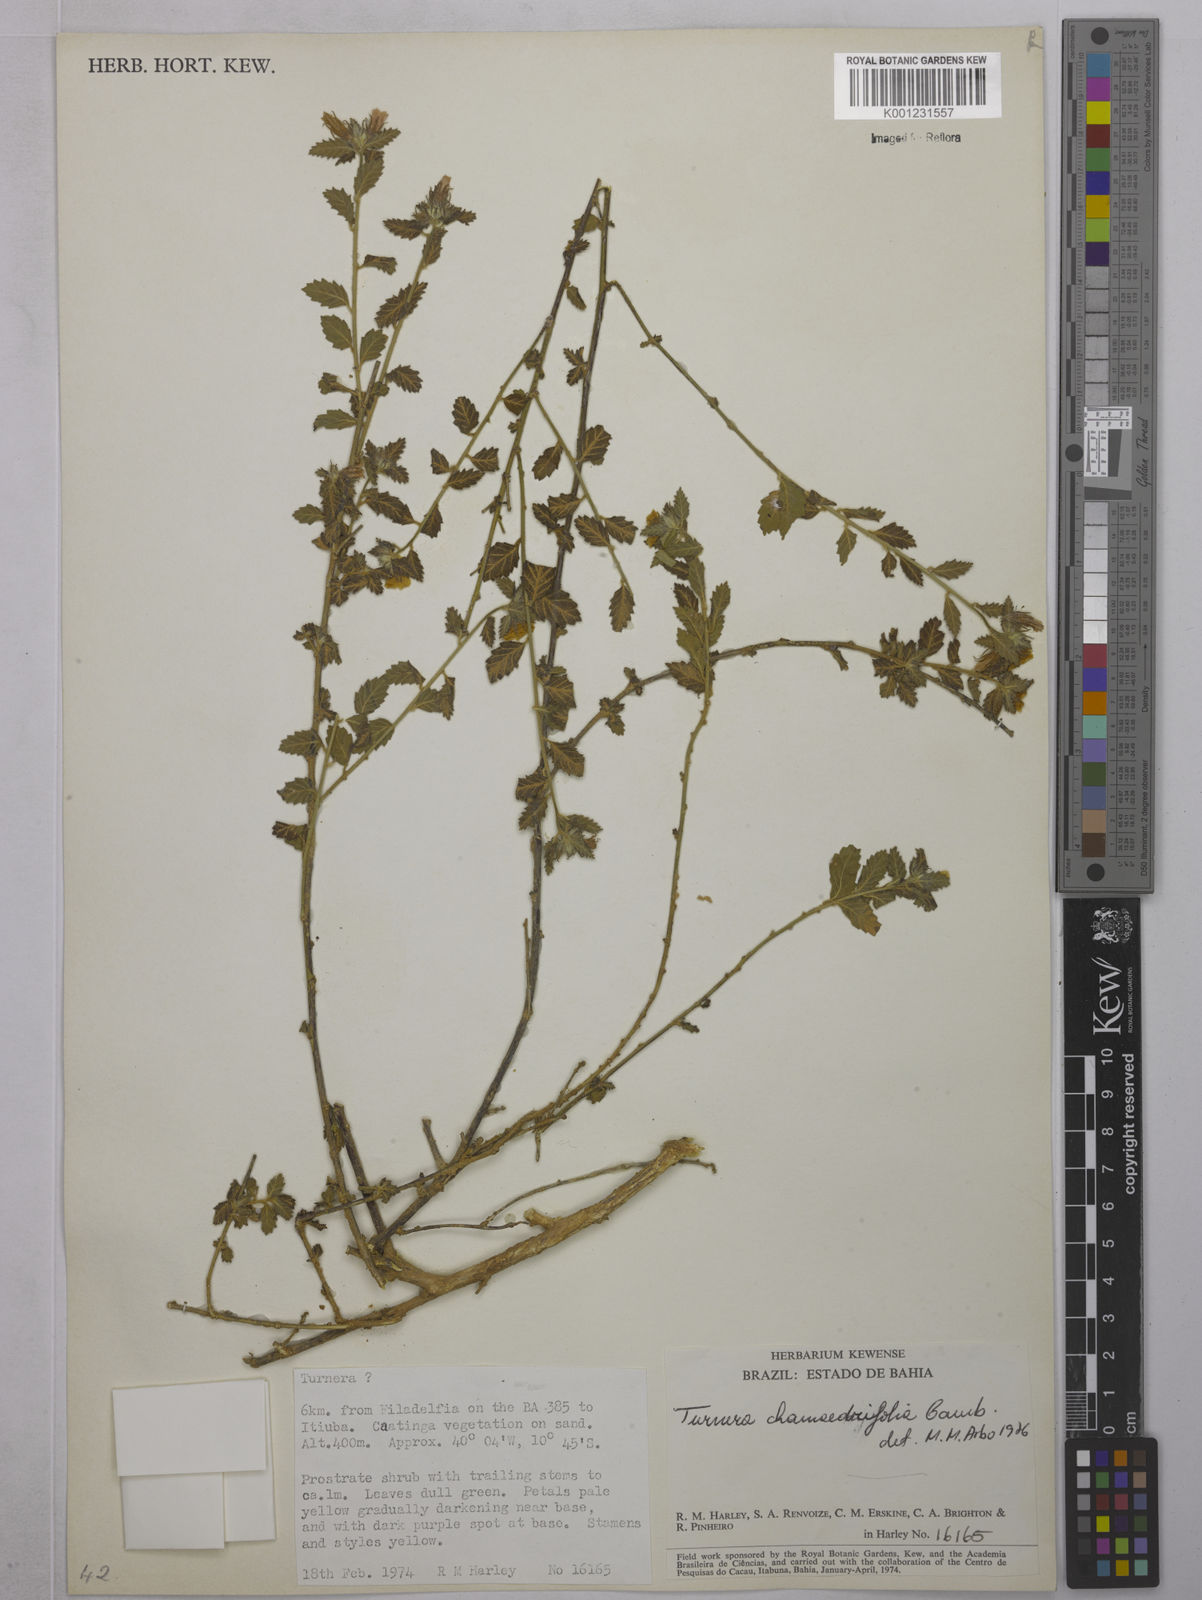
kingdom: Plantae
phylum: Tracheophyta
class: Magnoliopsida
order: Malpighiales
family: Turneraceae
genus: Turnera
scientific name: Turnera chamaedrifolia
